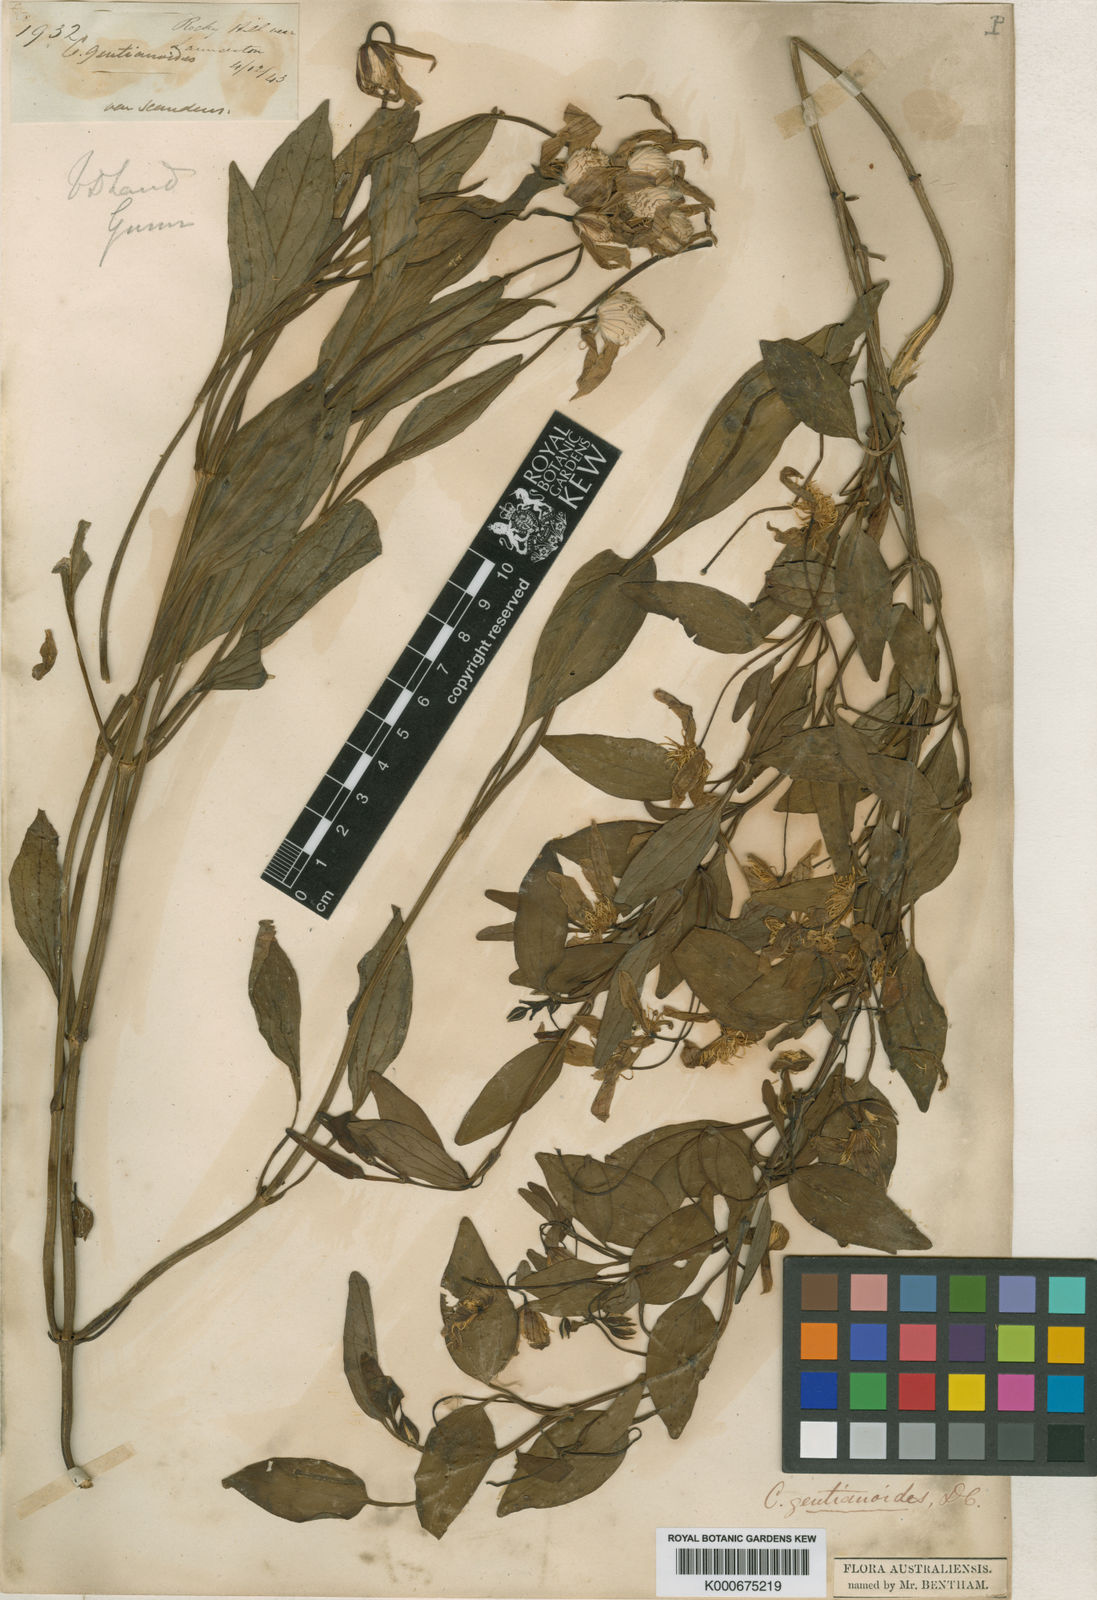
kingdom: Plantae
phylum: Tracheophyta
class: Magnoliopsida
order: Ranunculales
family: Ranunculaceae
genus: Clematis
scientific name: Clematis gentianoides
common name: Bushy clematis
